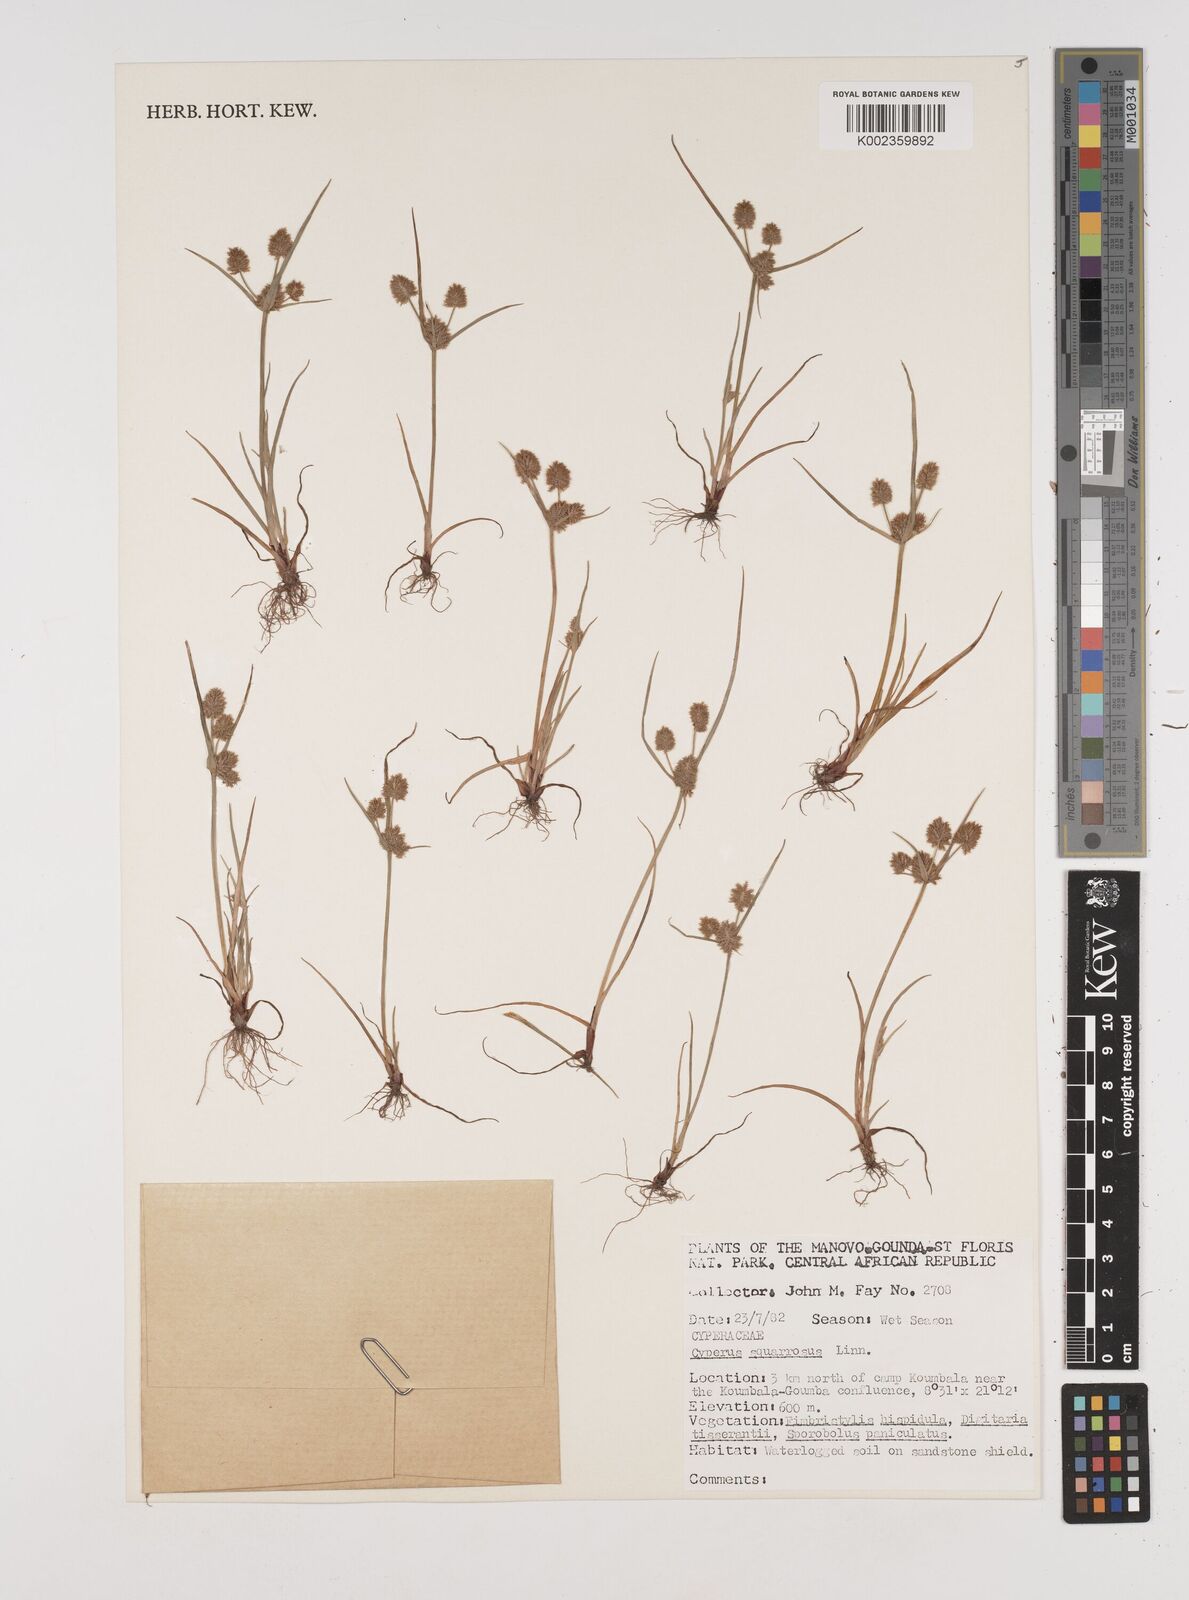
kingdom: Plantae
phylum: Tracheophyta
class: Liliopsida
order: Poales
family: Cyperaceae
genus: Cyperus
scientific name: Cyperus squarrosus
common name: Awned cyperus
